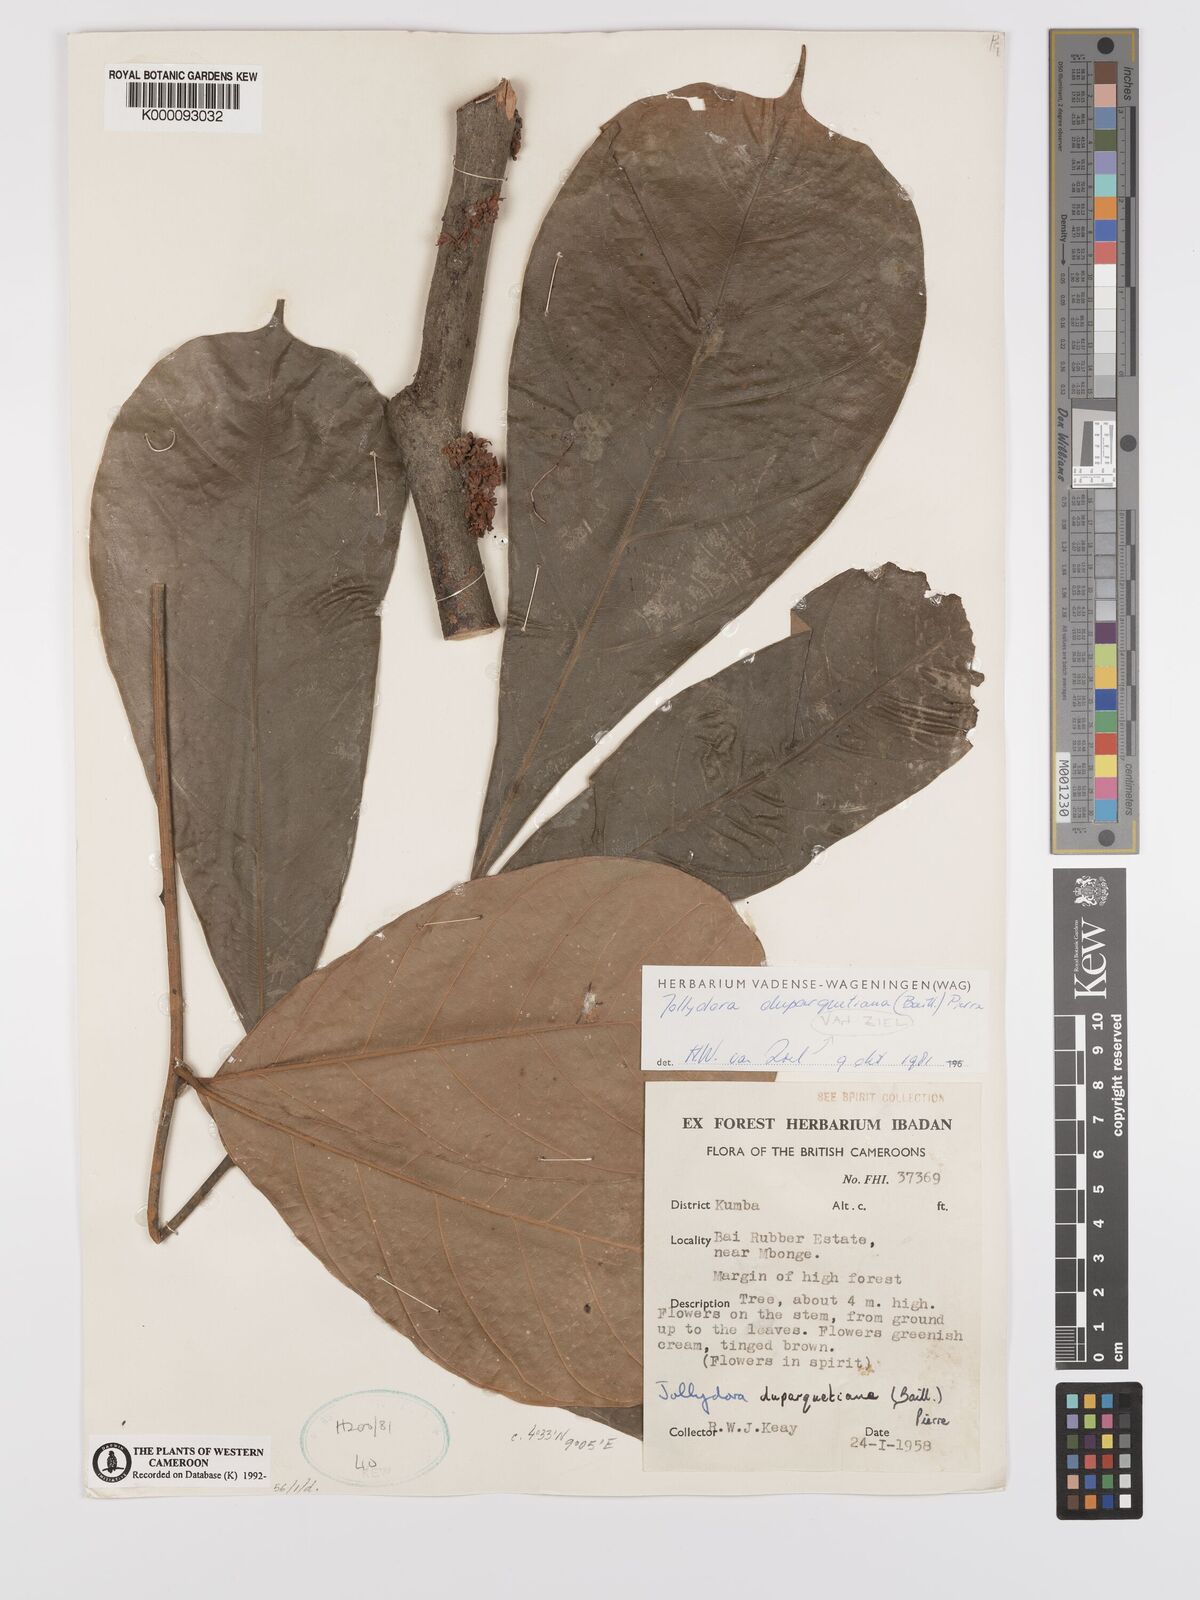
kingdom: Plantae
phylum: Tracheophyta
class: Magnoliopsida
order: Oxalidales
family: Connaraceae
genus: Jollydora
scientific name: Jollydora duparquetiana
